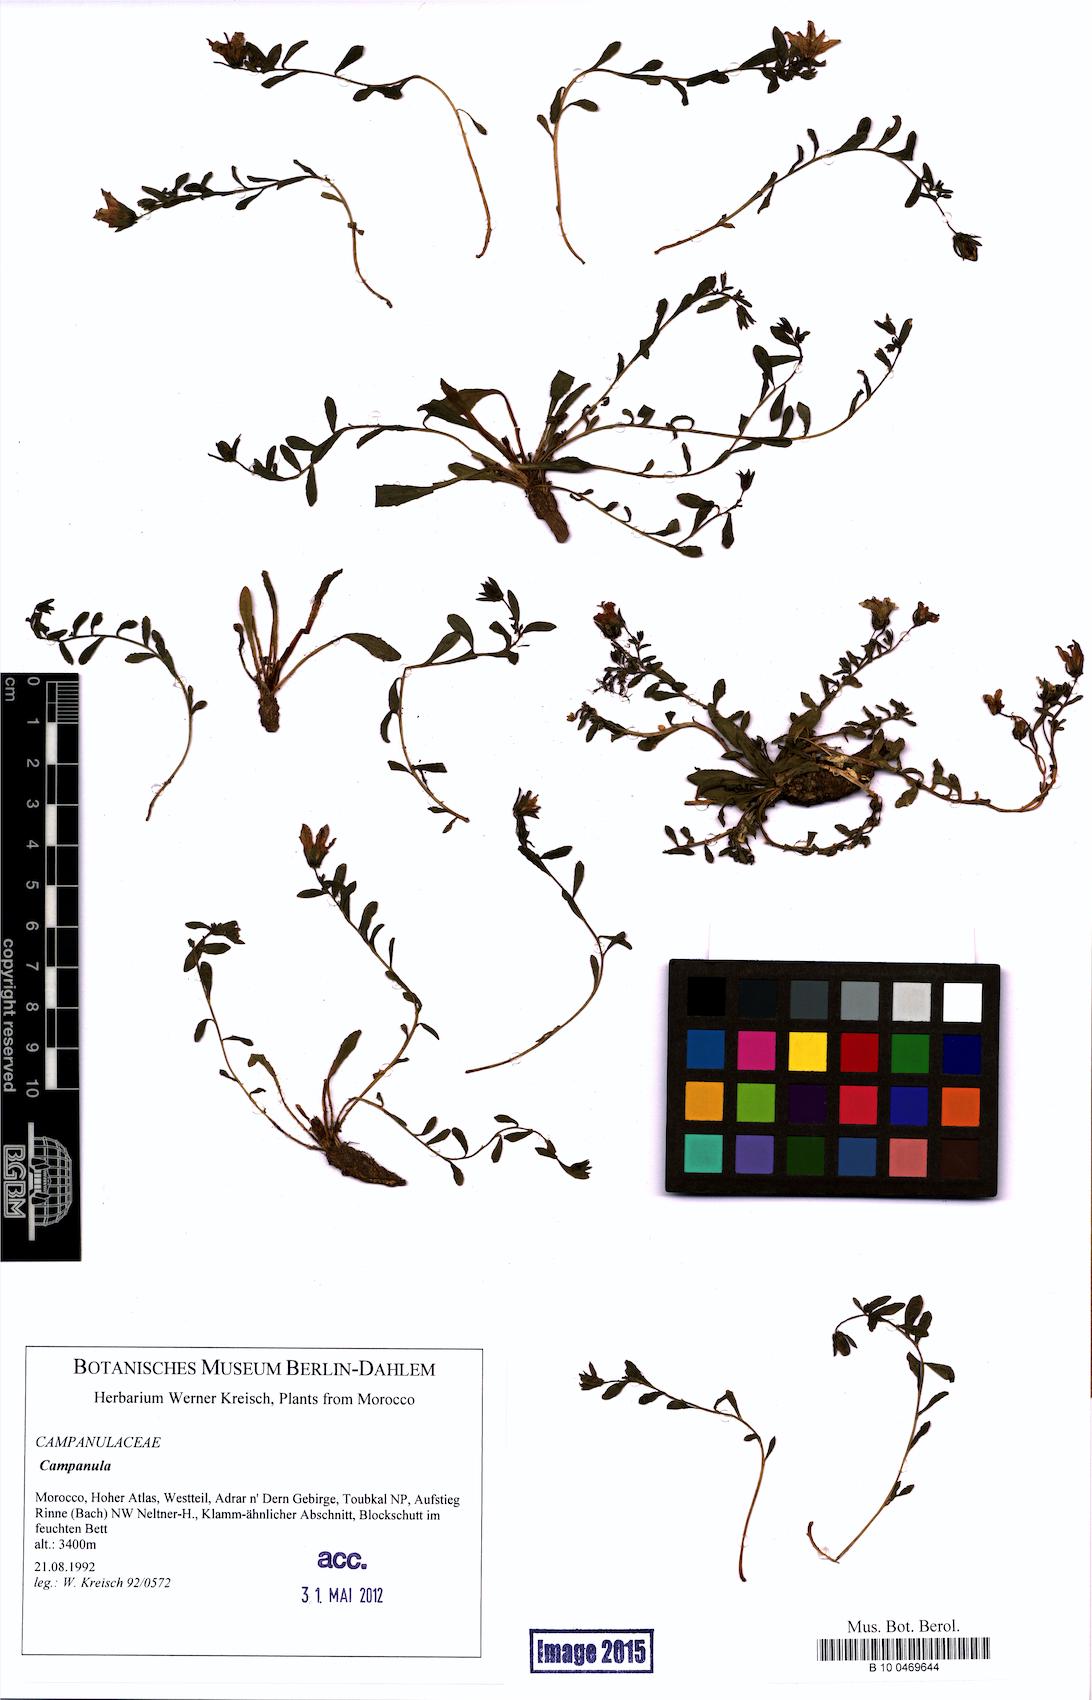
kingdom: Plantae
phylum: Tracheophyta
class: Magnoliopsida
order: Asterales
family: Campanulaceae
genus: Campanula
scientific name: Campanula
